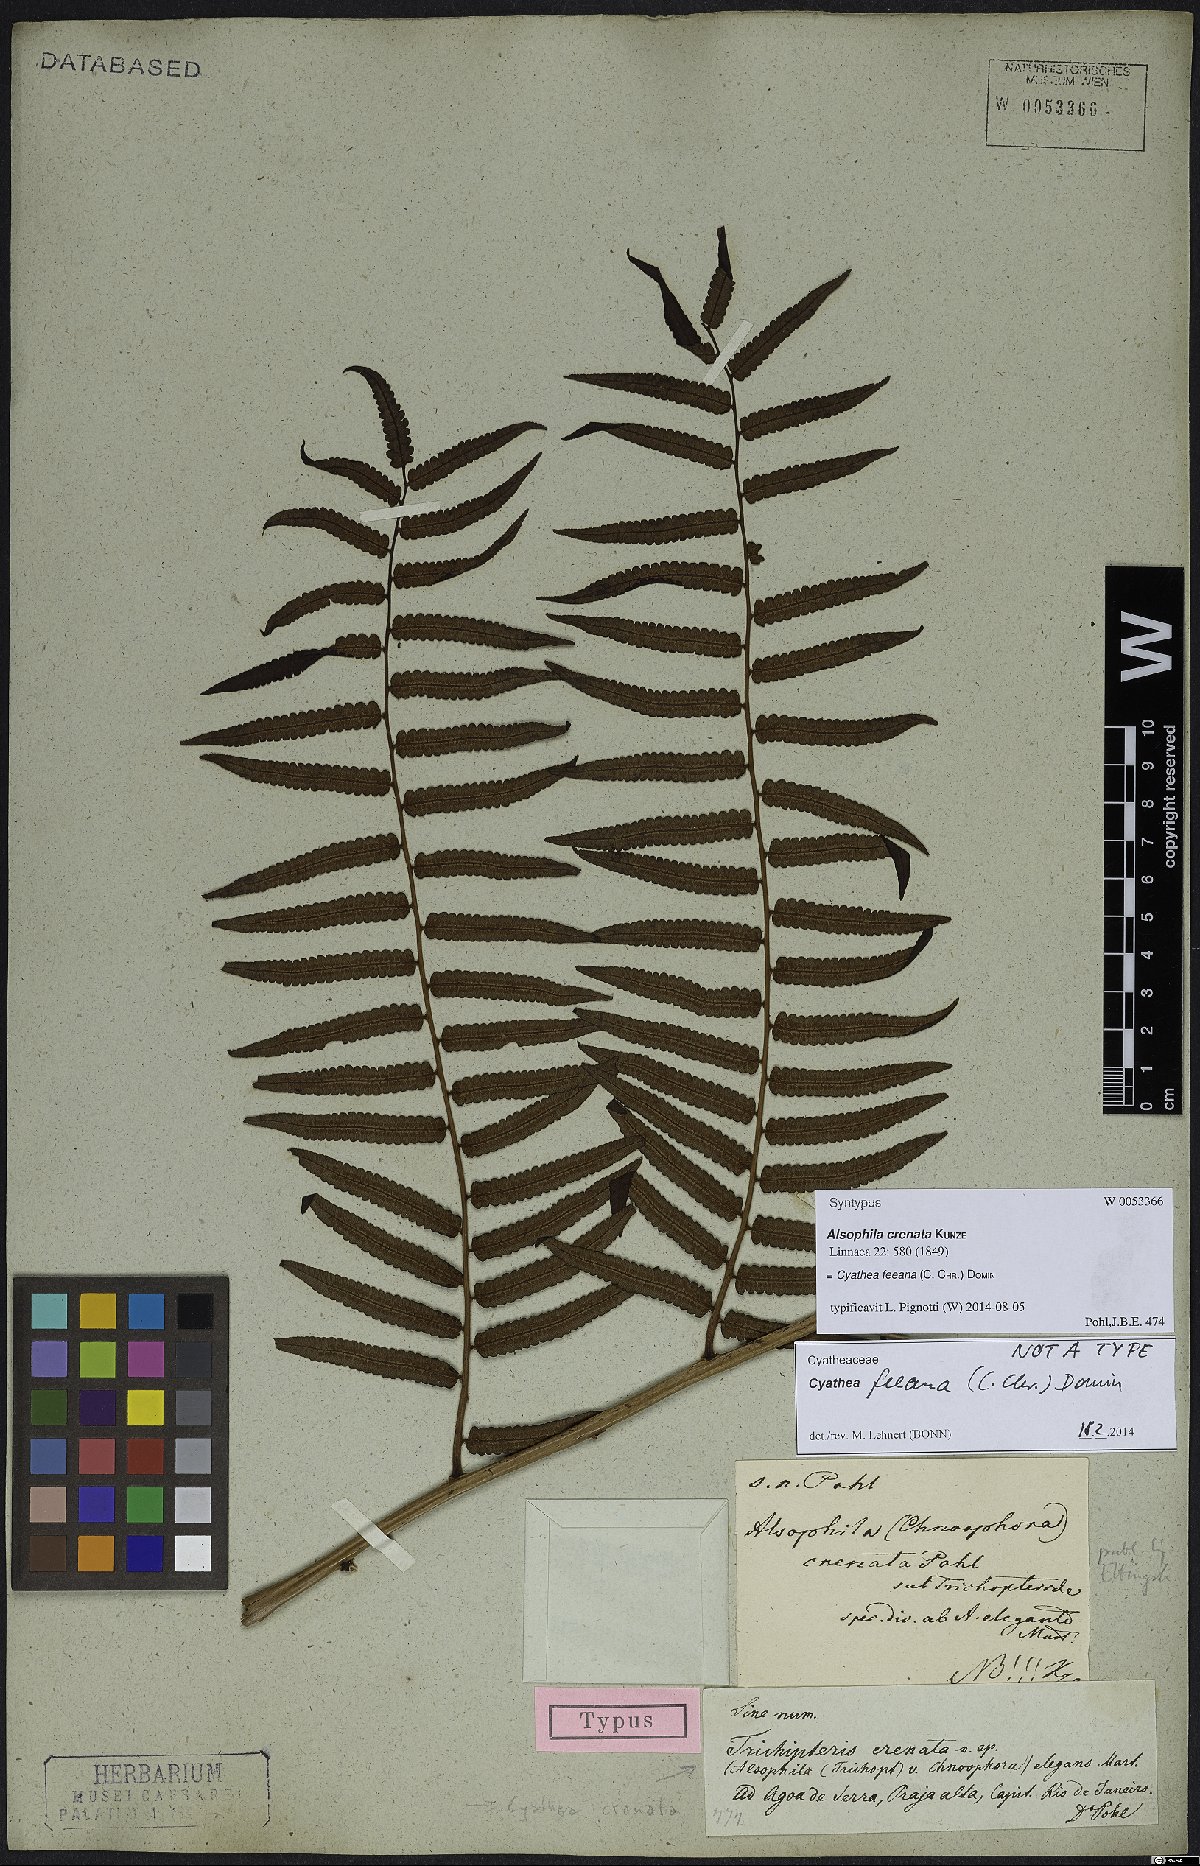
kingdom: Plantae
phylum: Tracheophyta
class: Polypodiopsida
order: Cyatheales
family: Cyatheaceae
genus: Cyathea
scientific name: Cyathea feeana
